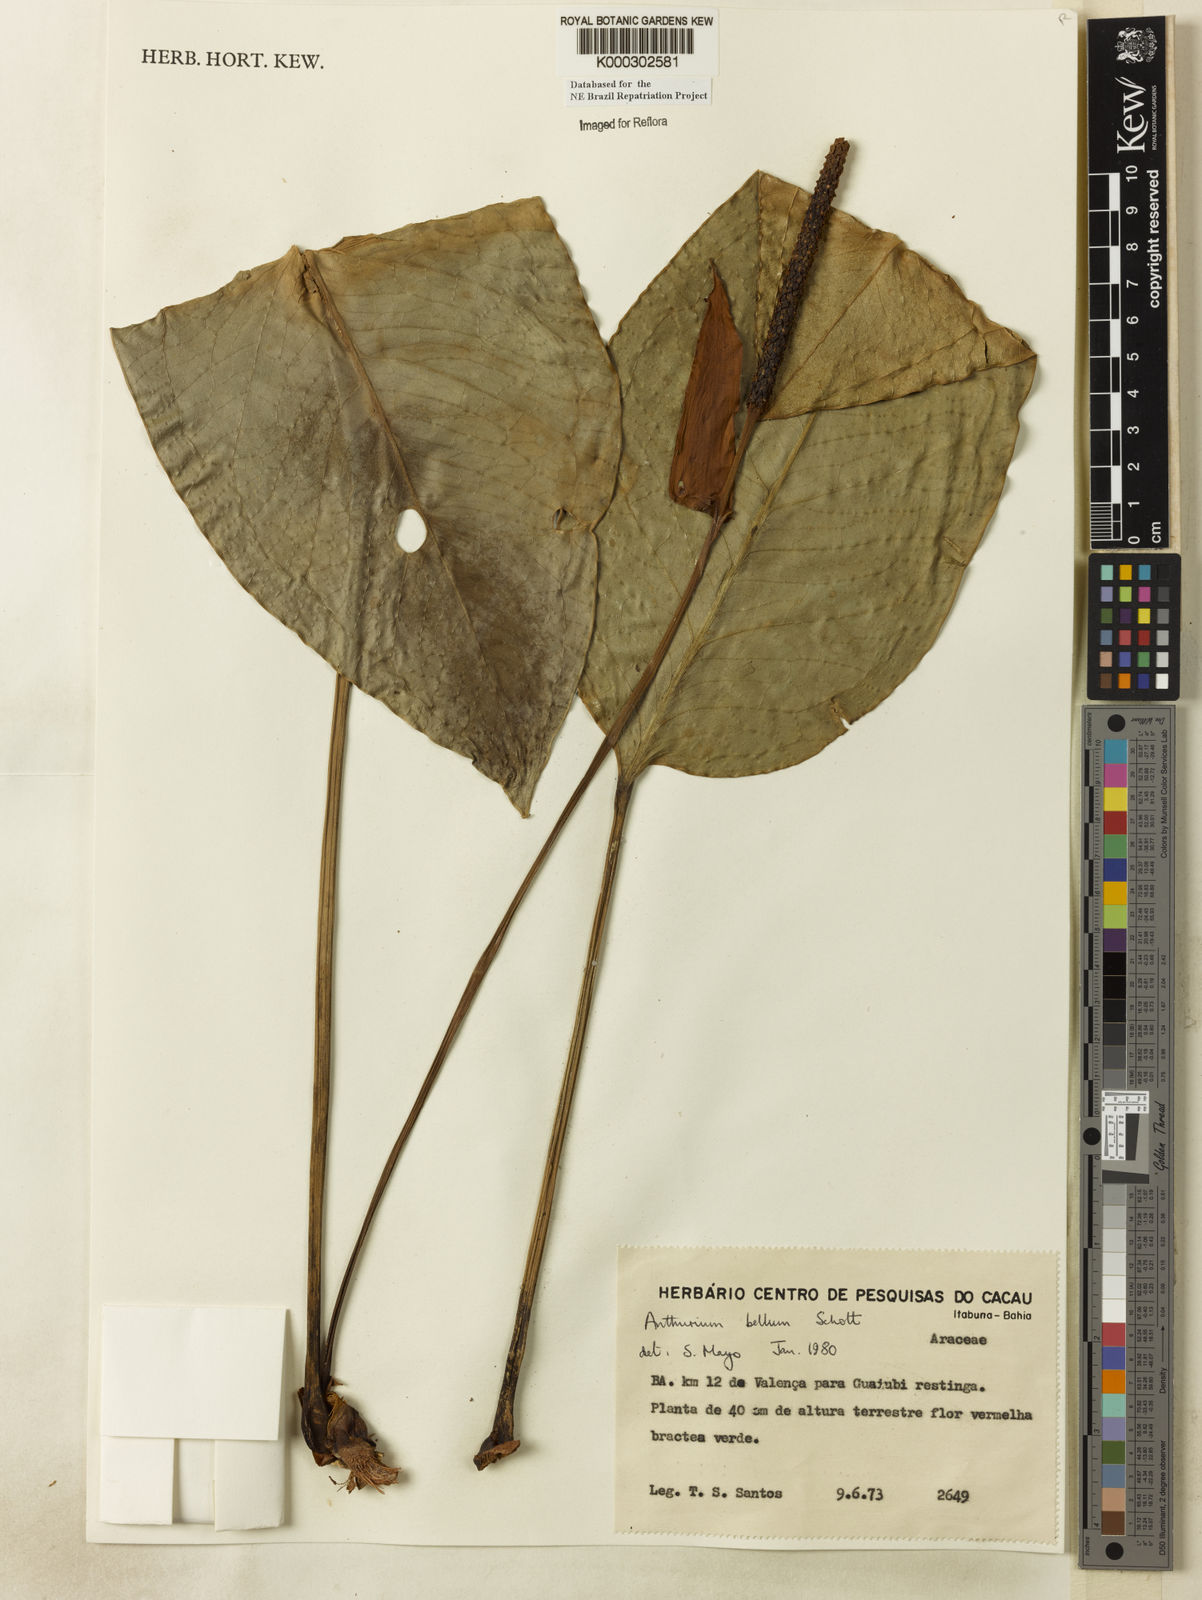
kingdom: Plantae
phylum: Tracheophyta
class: Liliopsida
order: Alismatales
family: Araceae
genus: Anthurium
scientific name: Anthurium bellum
